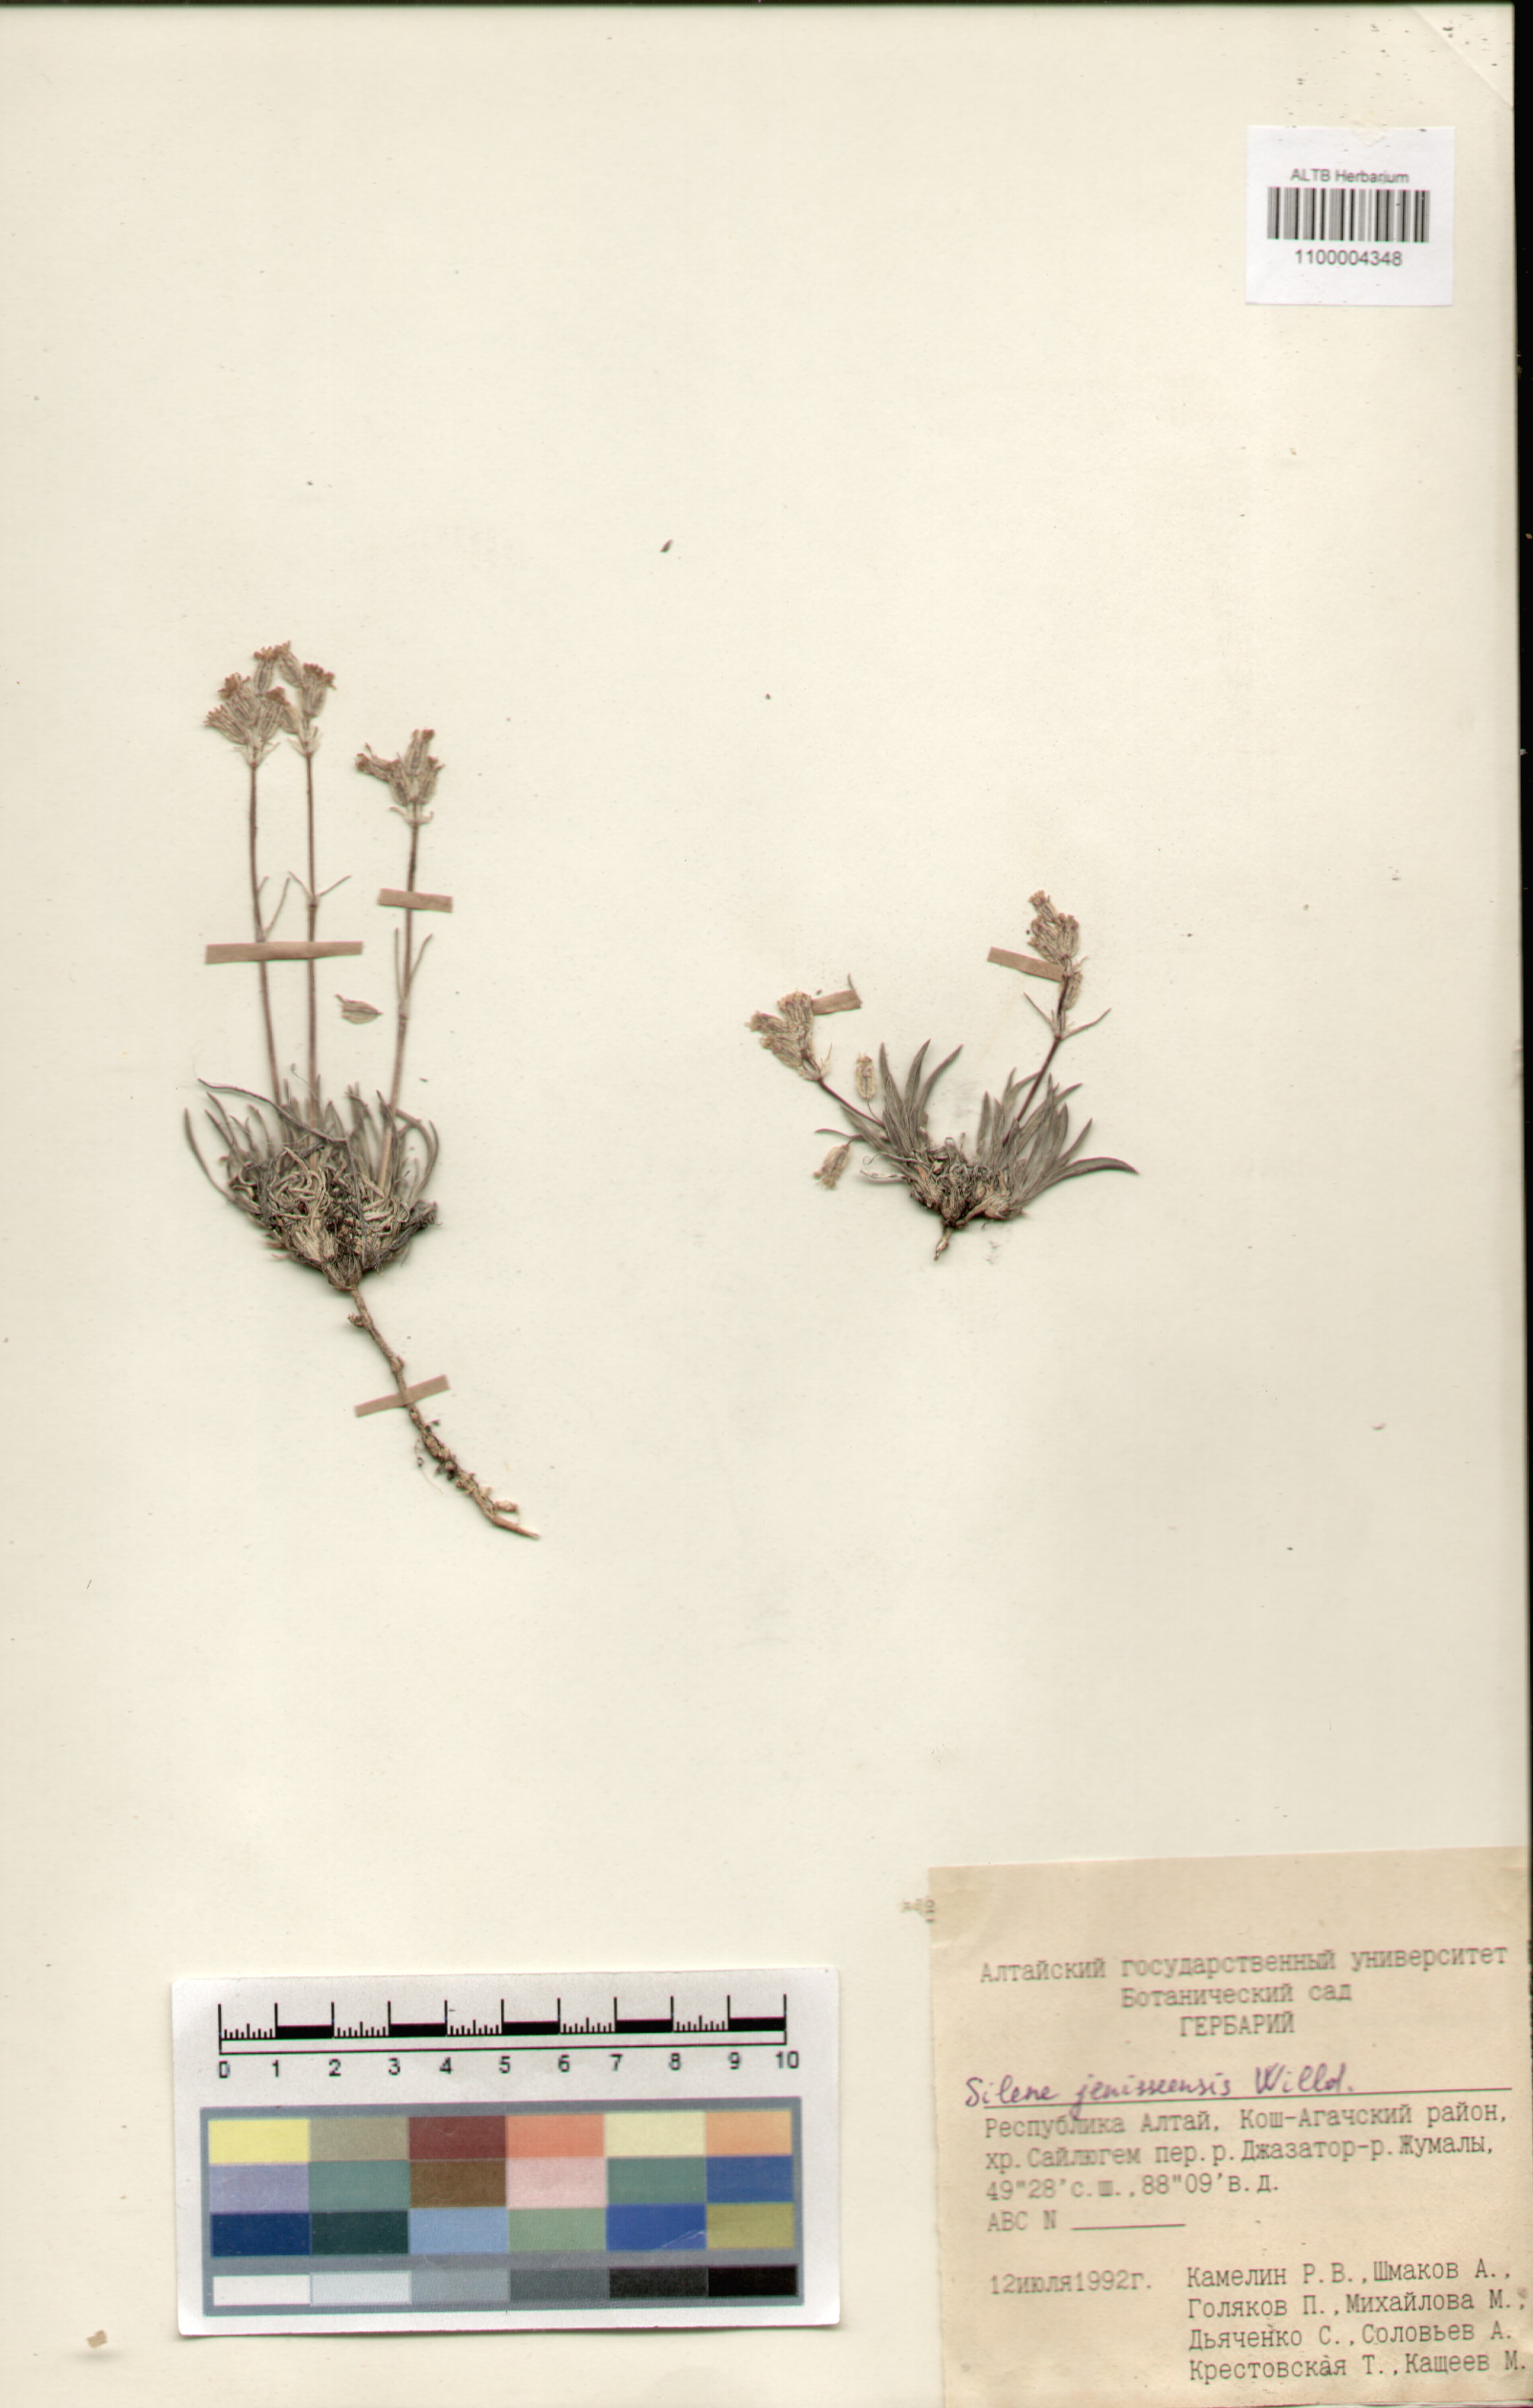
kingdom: Plantae
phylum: Tracheophyta
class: Magnoliopsida
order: Caryophyllales
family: Caryophyllaceae
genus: Silene
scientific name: Silene jeniseensis
